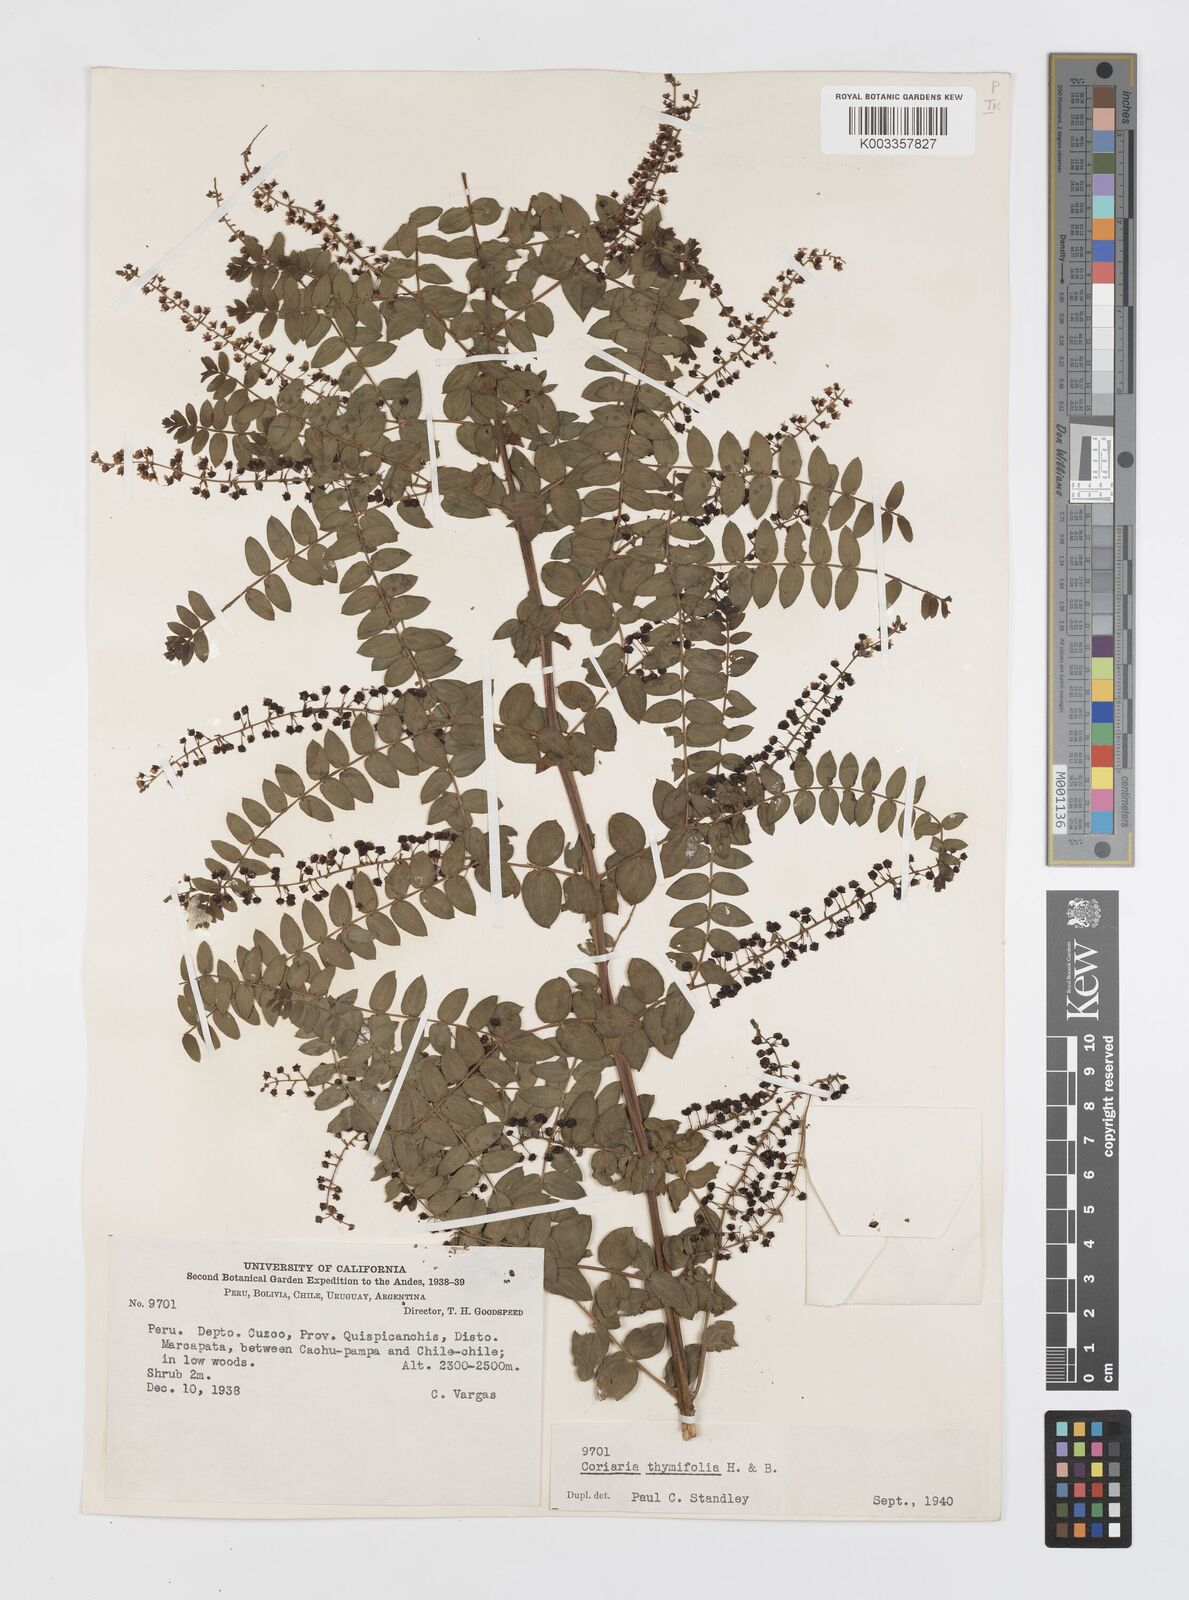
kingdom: Plantae
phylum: Tracheophyta
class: Magnoliopsida
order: Cucurbitales
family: Coriariaceae
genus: Coriaria
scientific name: Coriaria microphylla
